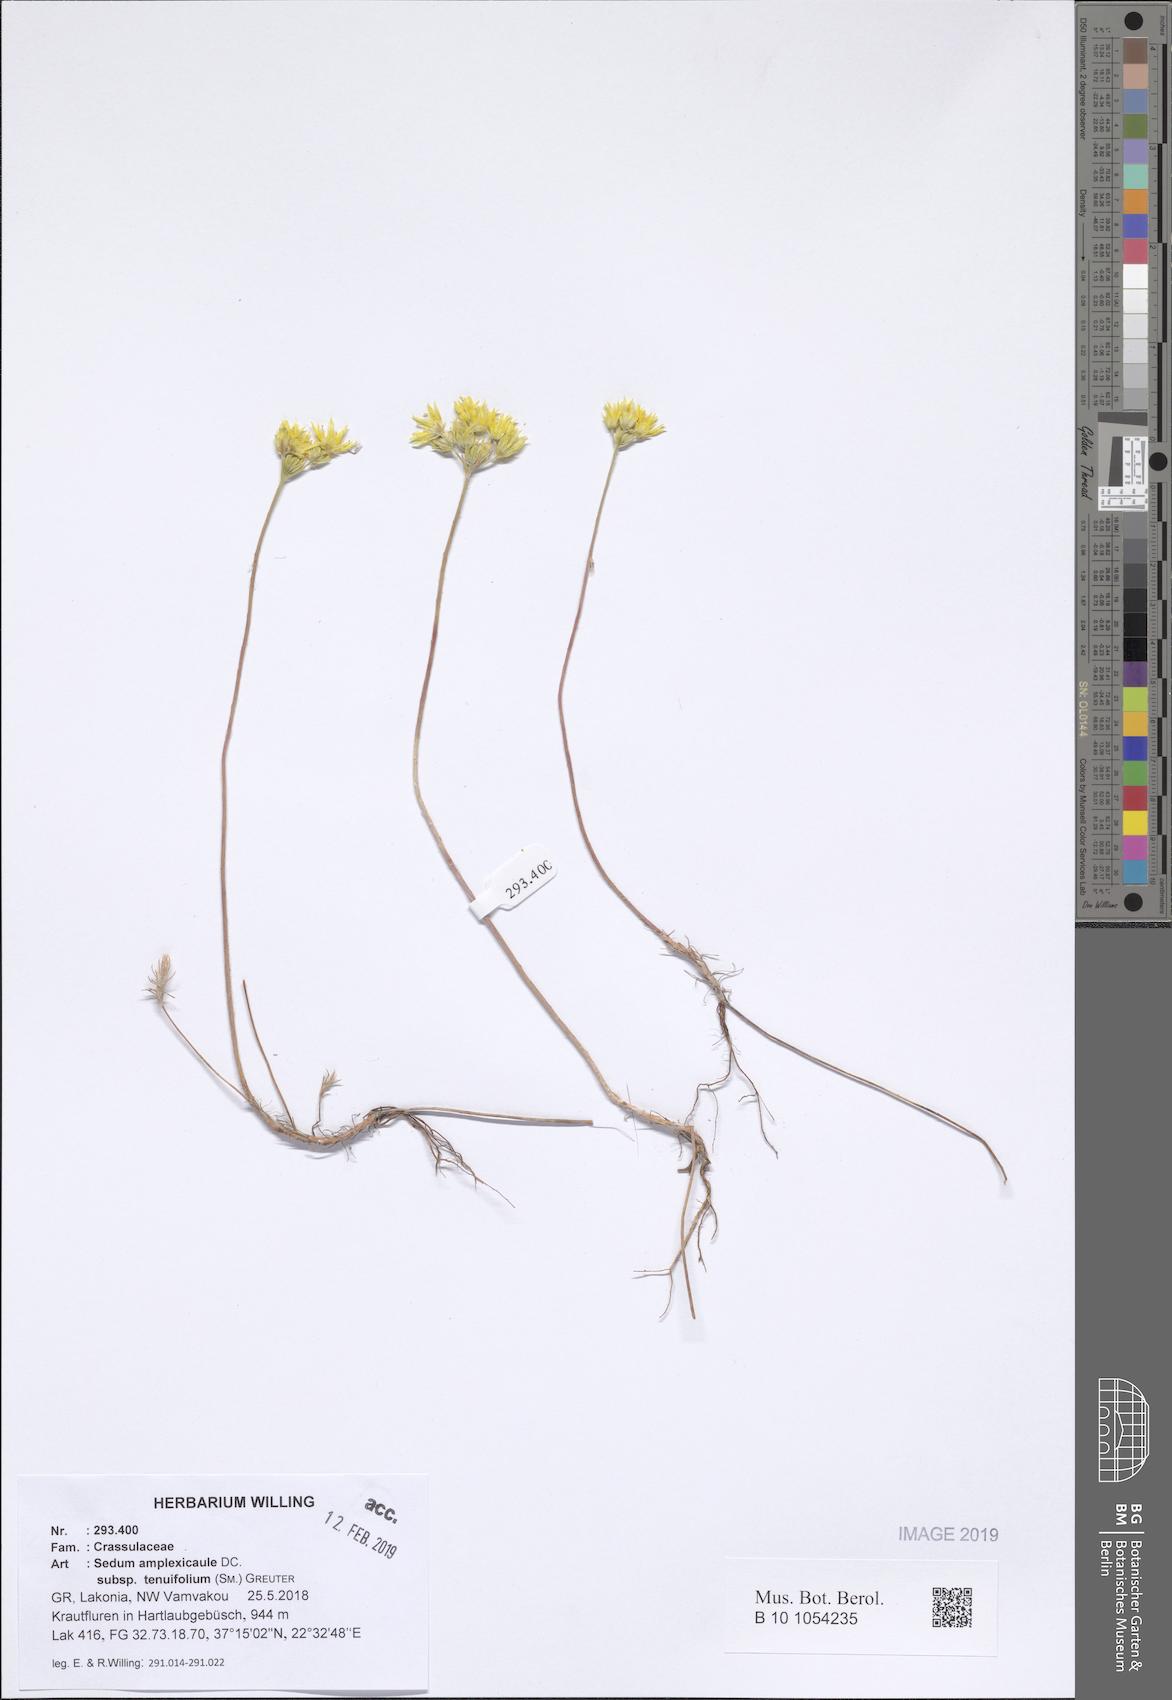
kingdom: Plantae
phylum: Tracheophyta
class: Magnoliopsida
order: Saxifragales
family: Crassulaceae
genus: Petrosedum
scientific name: Petrosedum tenuifolium
